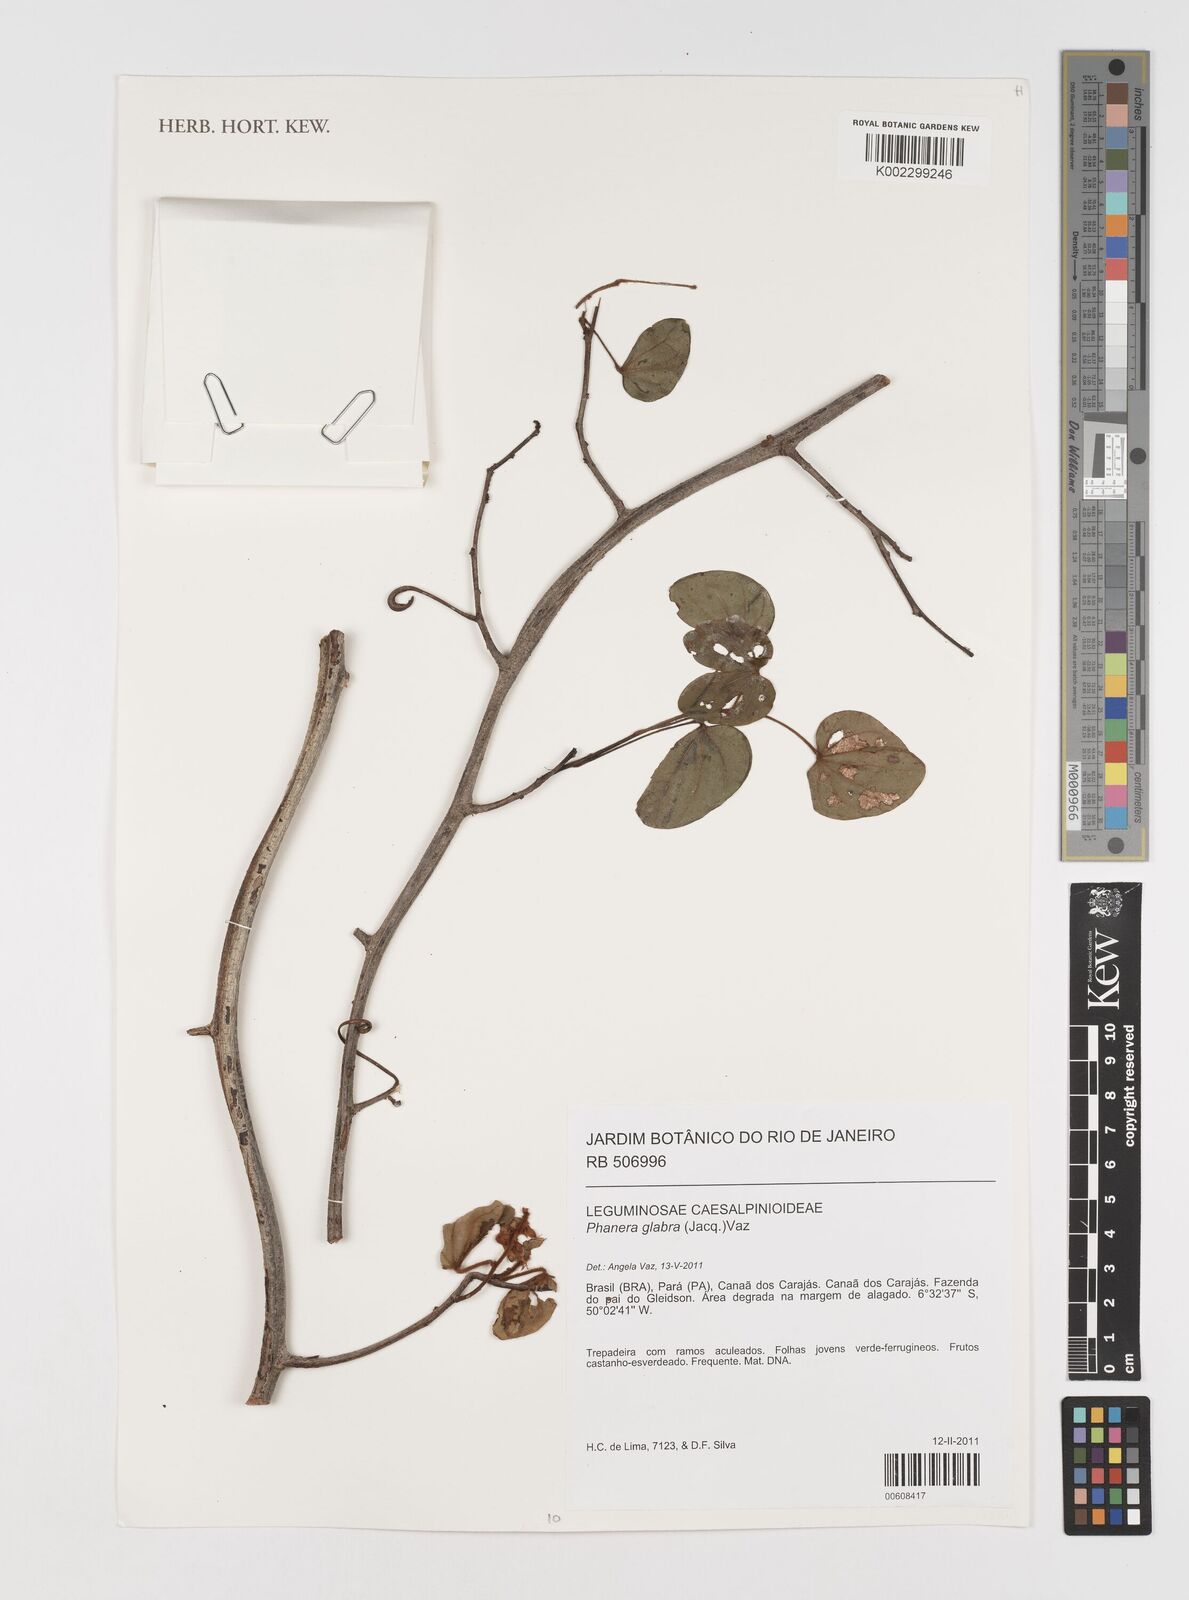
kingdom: Plantae
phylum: Tracheophyta
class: Magnoliopsida
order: Fabales
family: Fabaceae
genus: Schnella
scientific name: Schnella glabra
